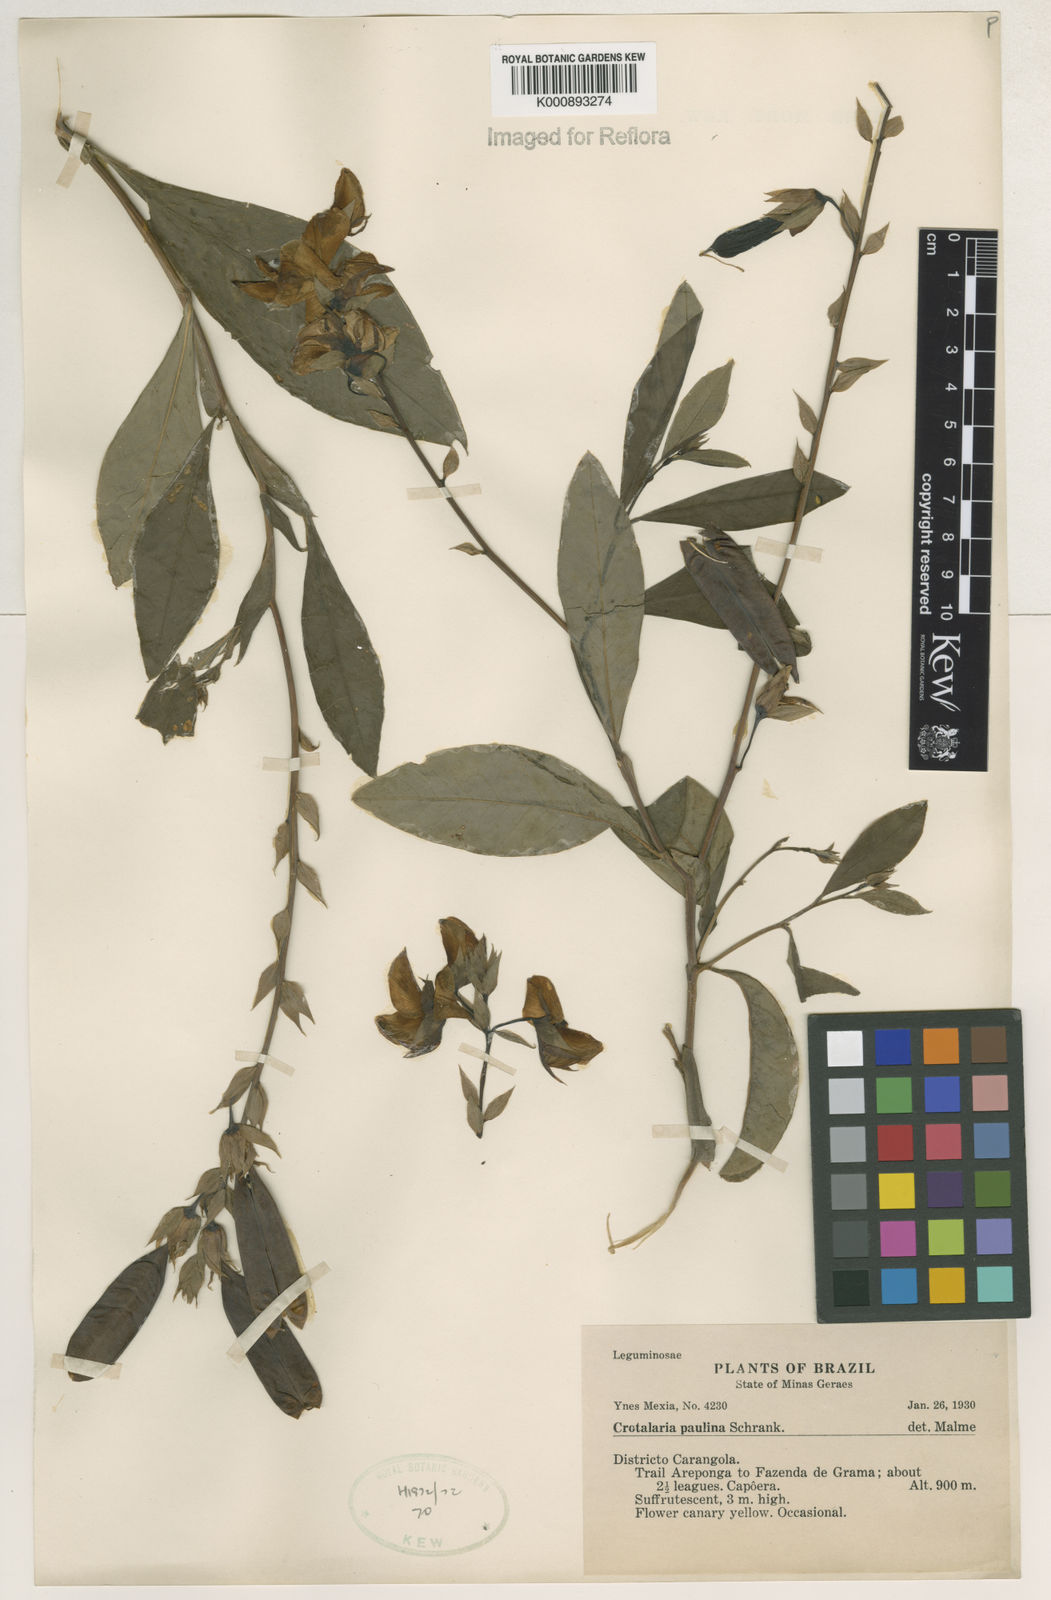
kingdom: Plantae
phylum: Tracheophyta
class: Magnoliopsida
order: Fabales
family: Fabaceae
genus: Crotalaria
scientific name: Crotalaria paulina
